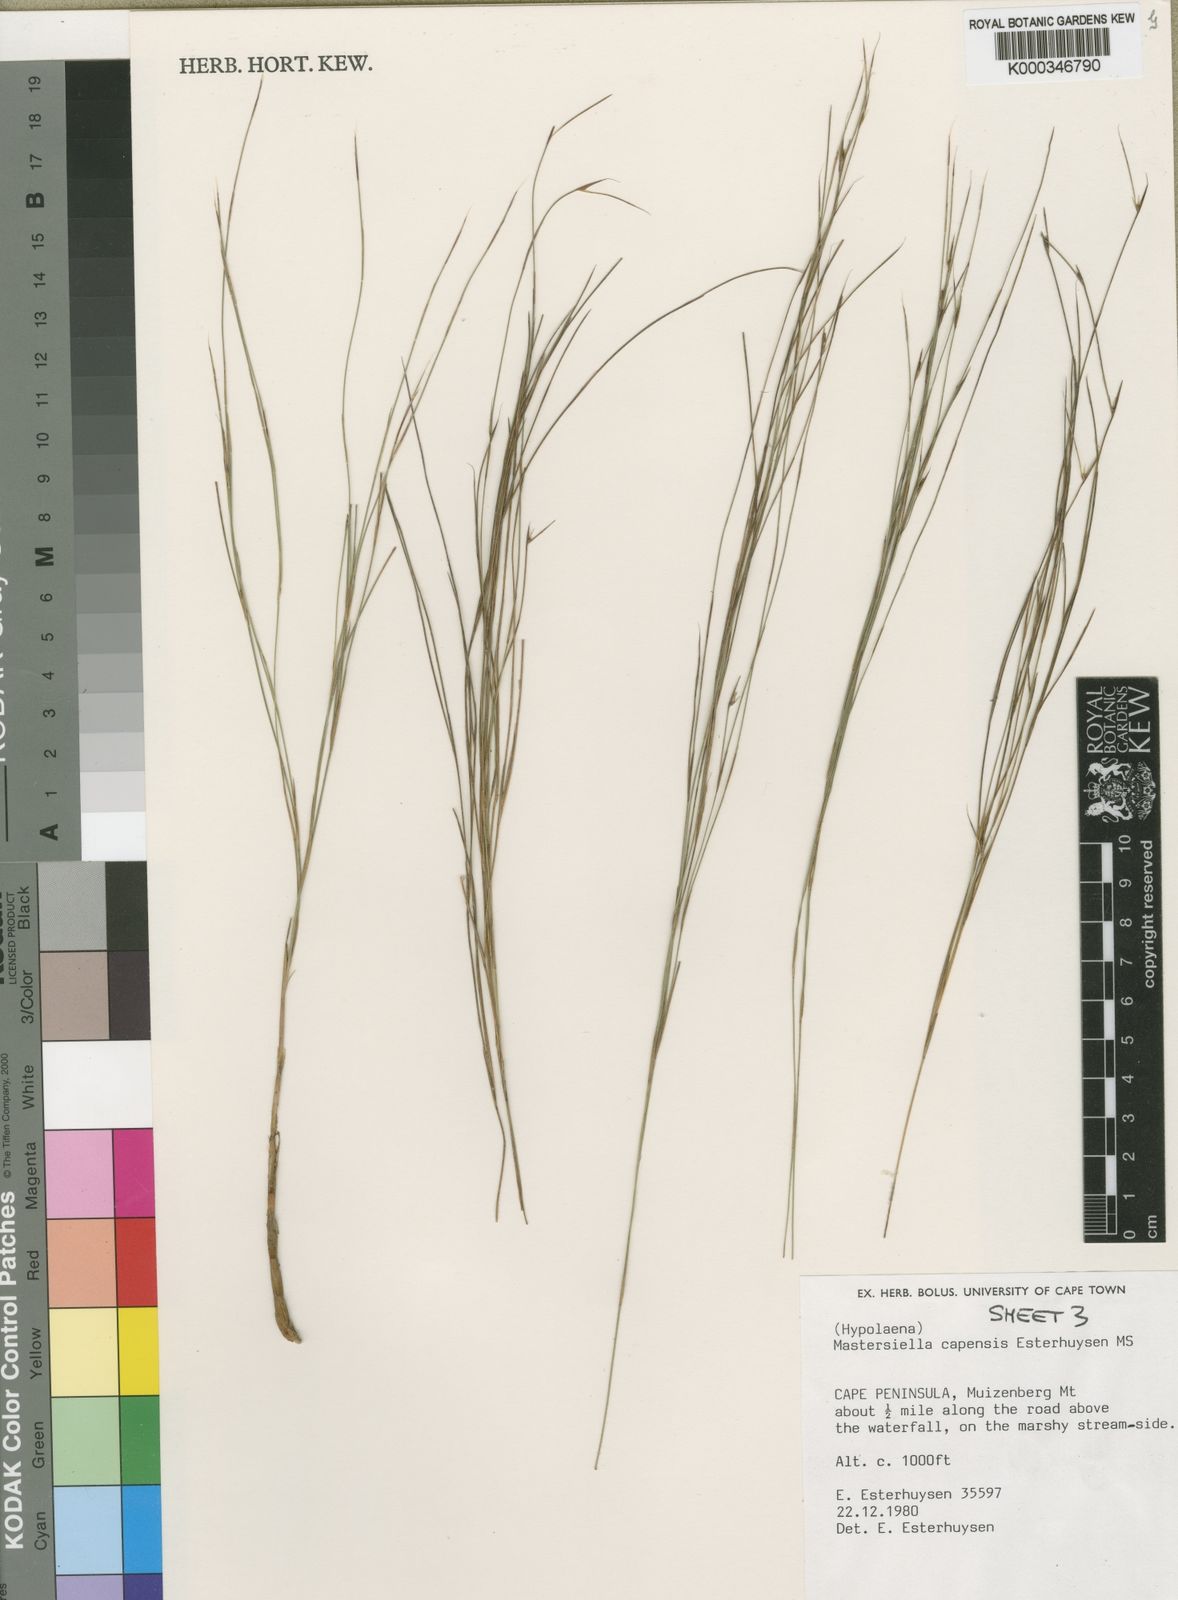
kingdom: Plantae
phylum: Tracheophyta
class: Liliopsida
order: Poales
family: Restionaceae
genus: Anthochortus
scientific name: Anthochortus capensis
